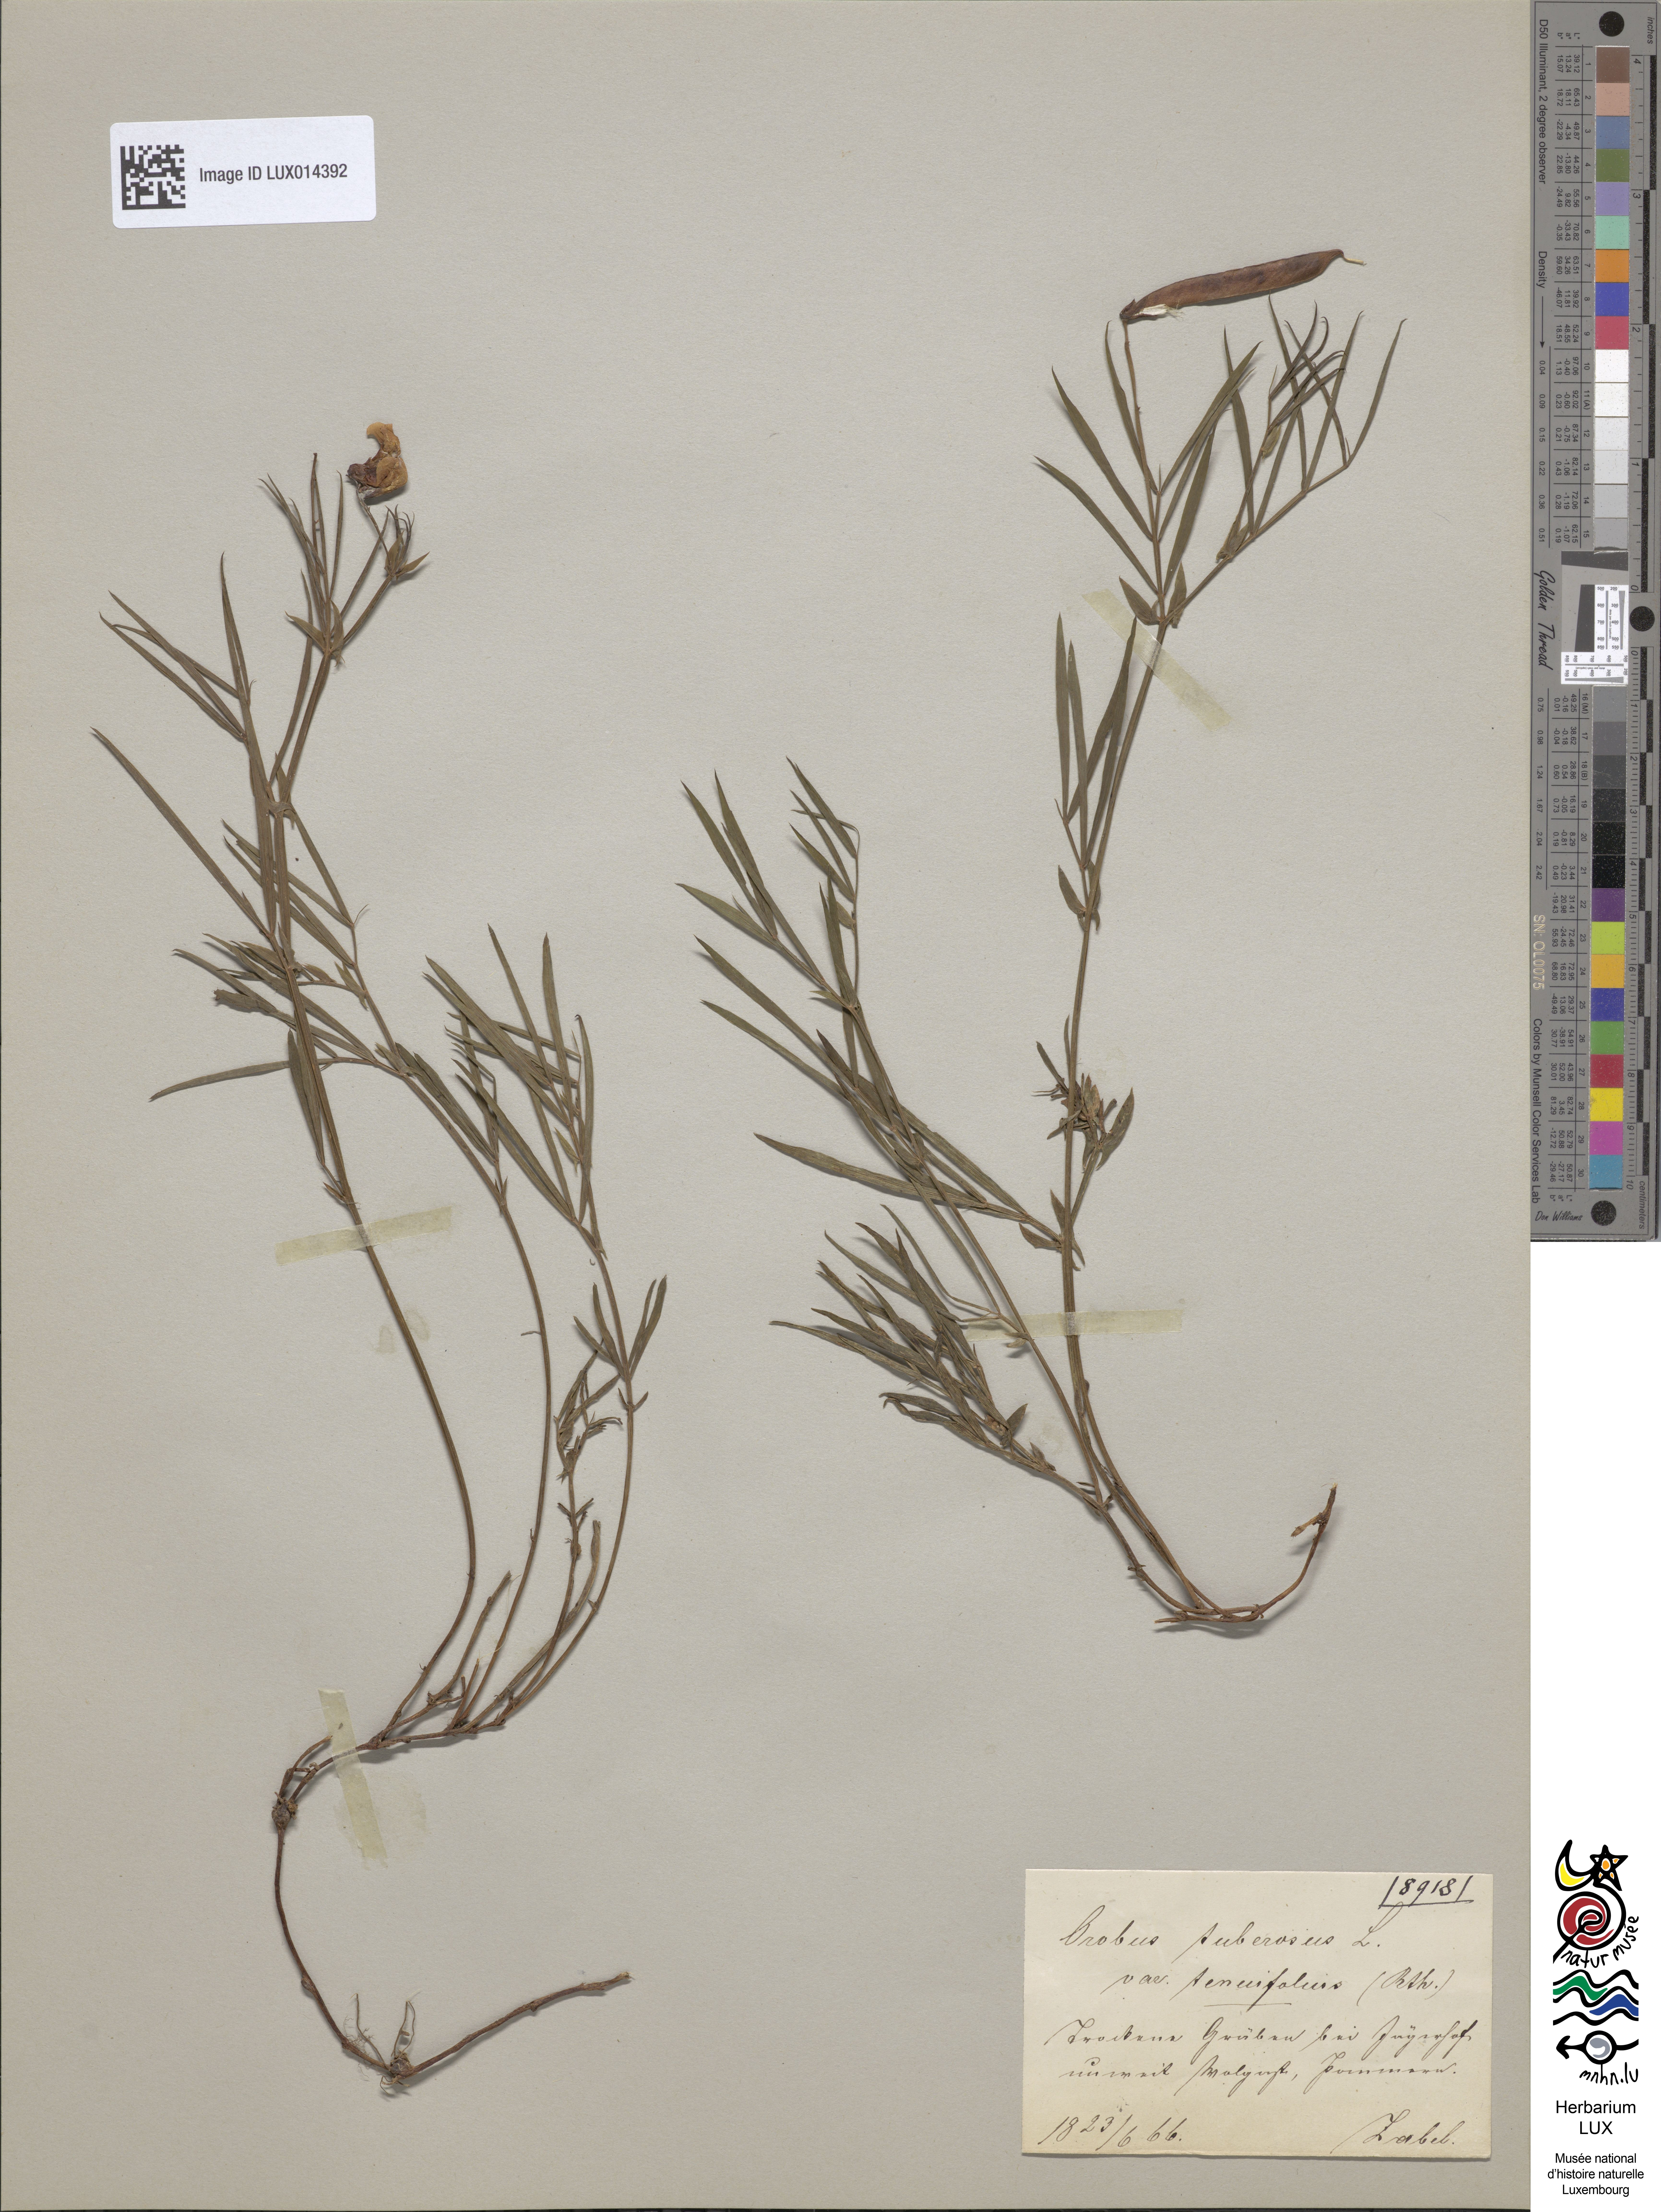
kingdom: Plantae
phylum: Tracheophyta
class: Magnoliopsida
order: Fabales
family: Fabaceae
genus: Lathyrus
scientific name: Lathyrus clymenum
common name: Spanish vetchling
